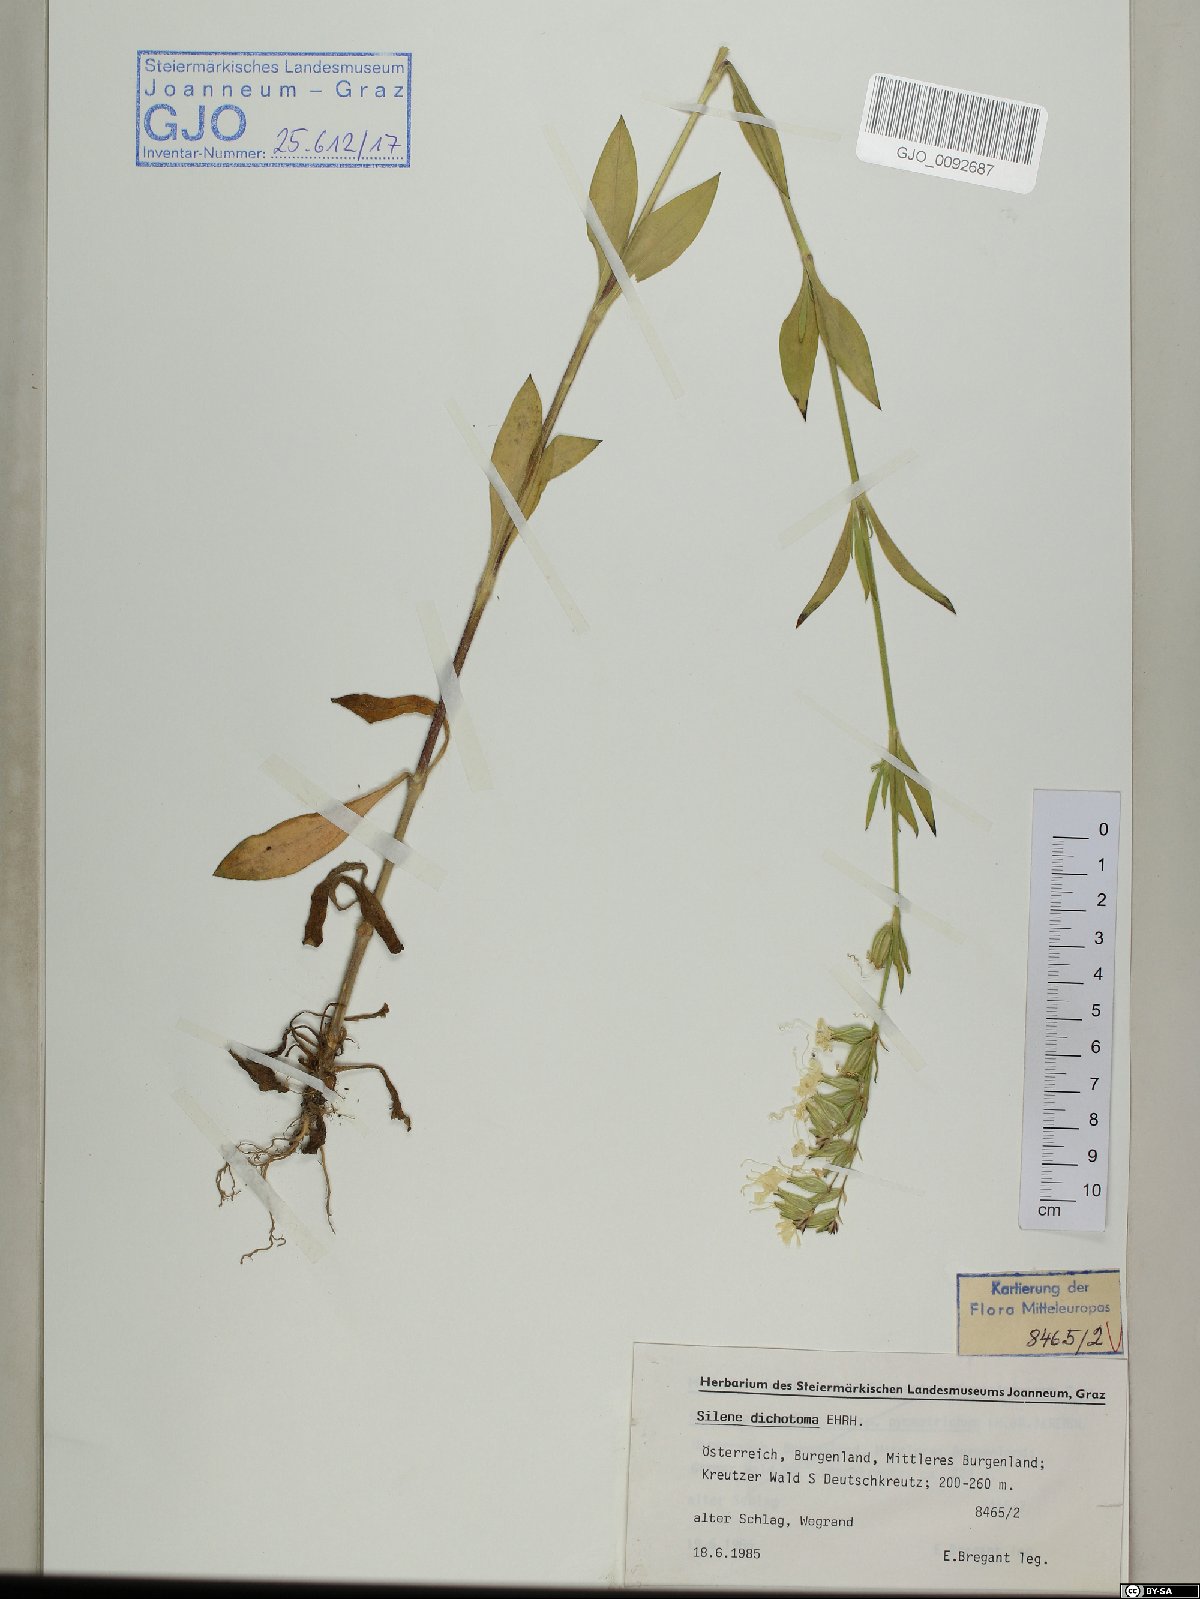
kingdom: Plantae
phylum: Tracheophyta
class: Magnoliopsida
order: Caryophyllales
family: Caryophyllaceae
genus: Silene
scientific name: Silene dichotoma
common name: Forked catchfly
